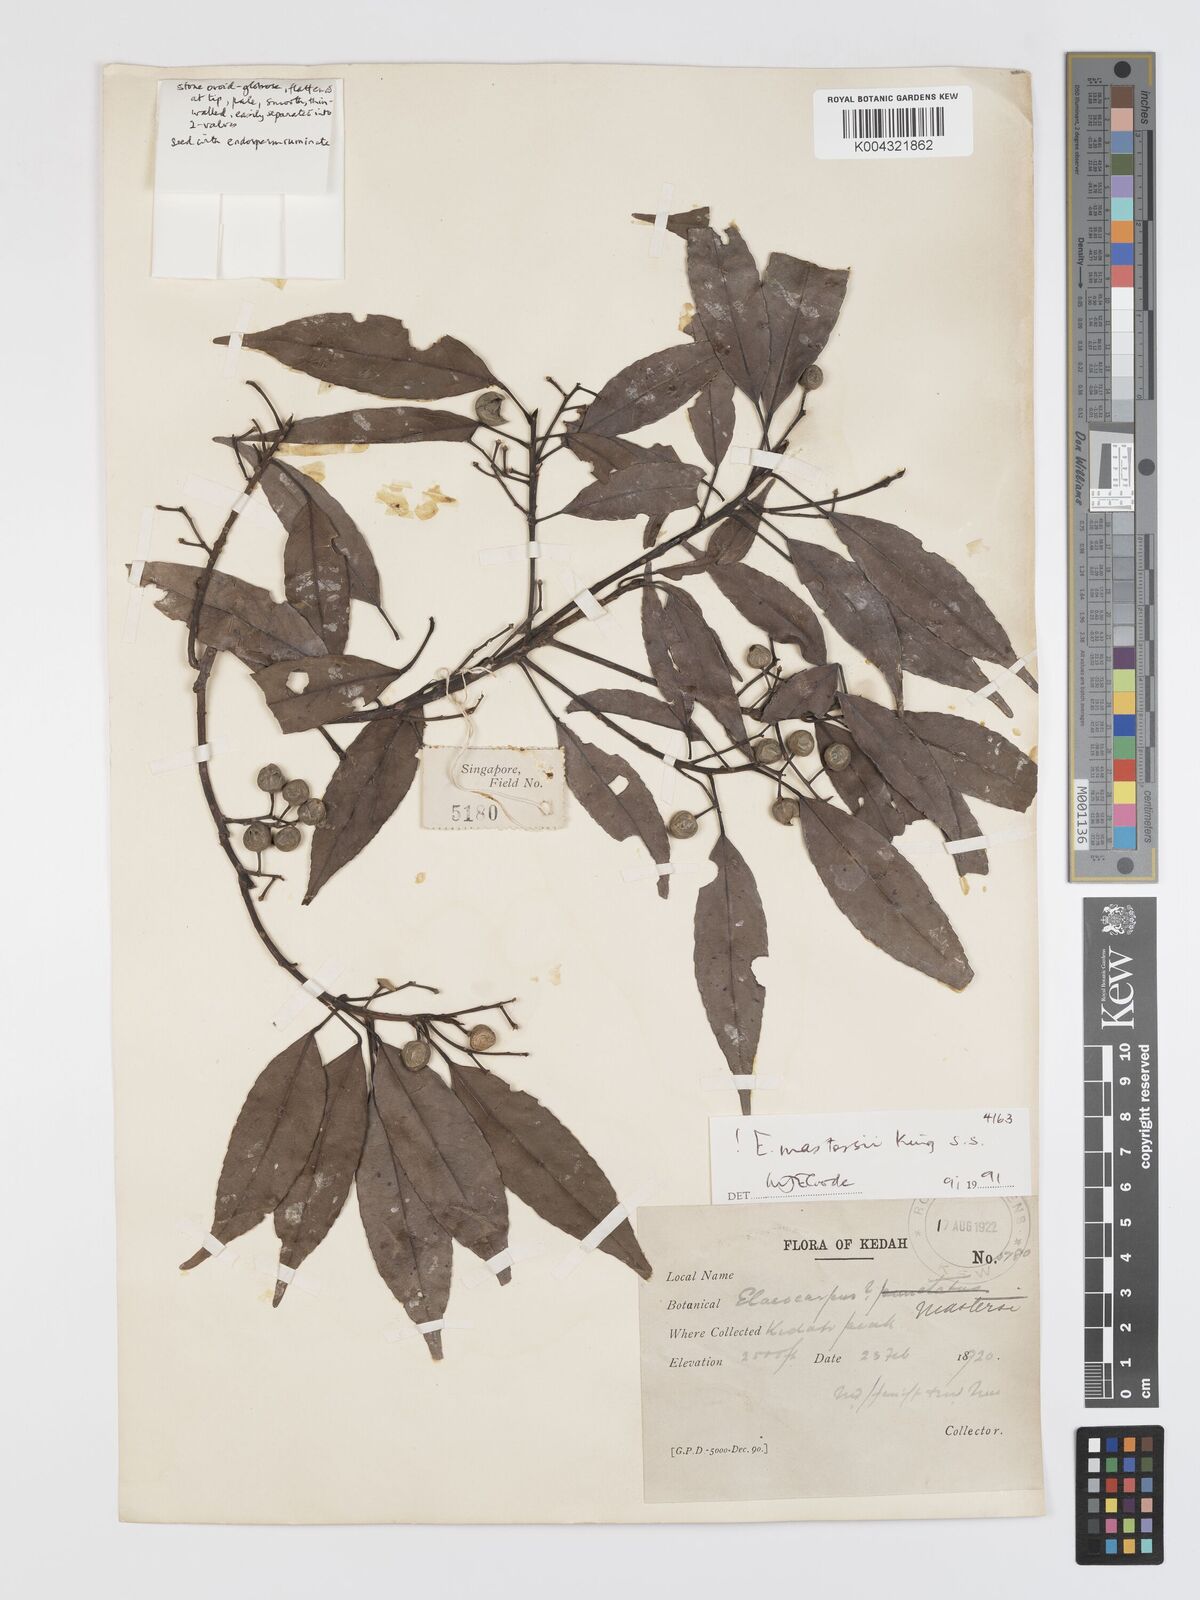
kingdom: Plantae
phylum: Tracheophyta
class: Magnoliopsida
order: Oxalidales
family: Elaeocarpaceae
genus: Elaeocarpus
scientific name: Elaeocarpus mastersii
